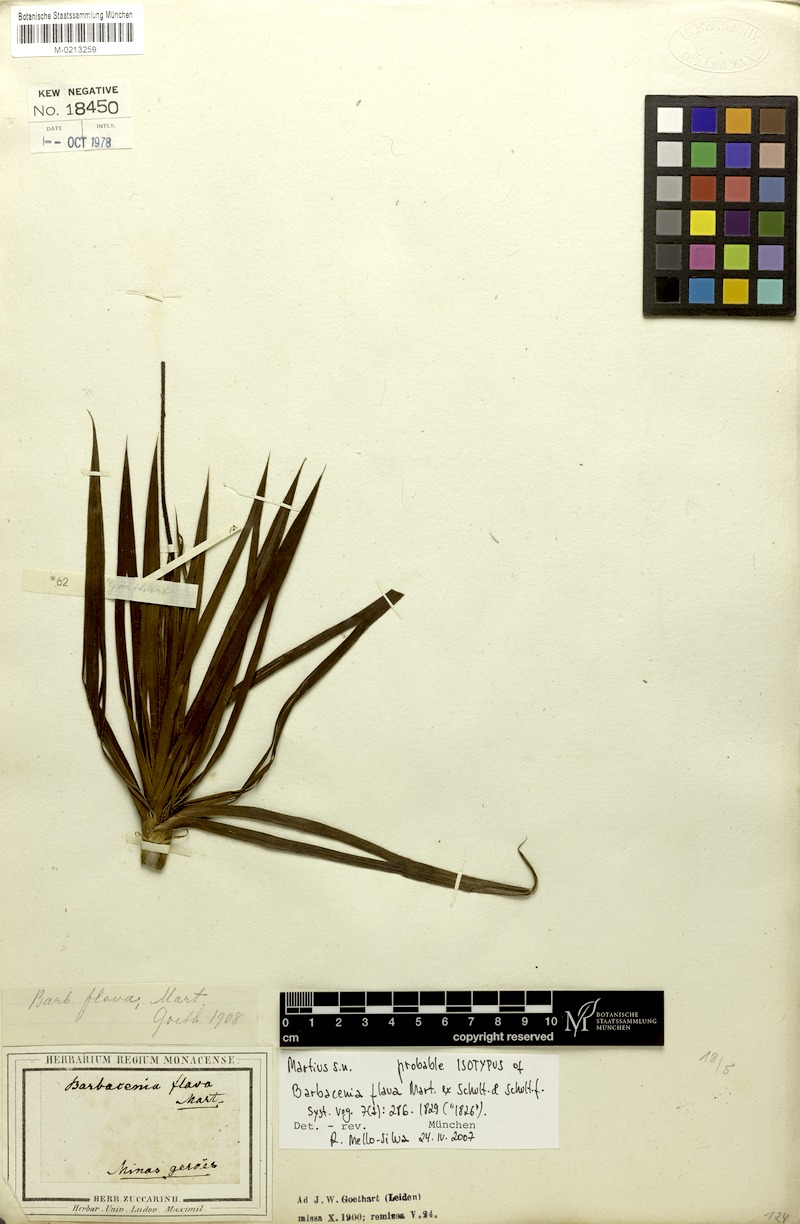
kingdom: Plantae
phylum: Tracheophyta
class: Liliopsida
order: Pandanales
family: Velloziaceae
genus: Barbacenia
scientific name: Barbacenia flava
